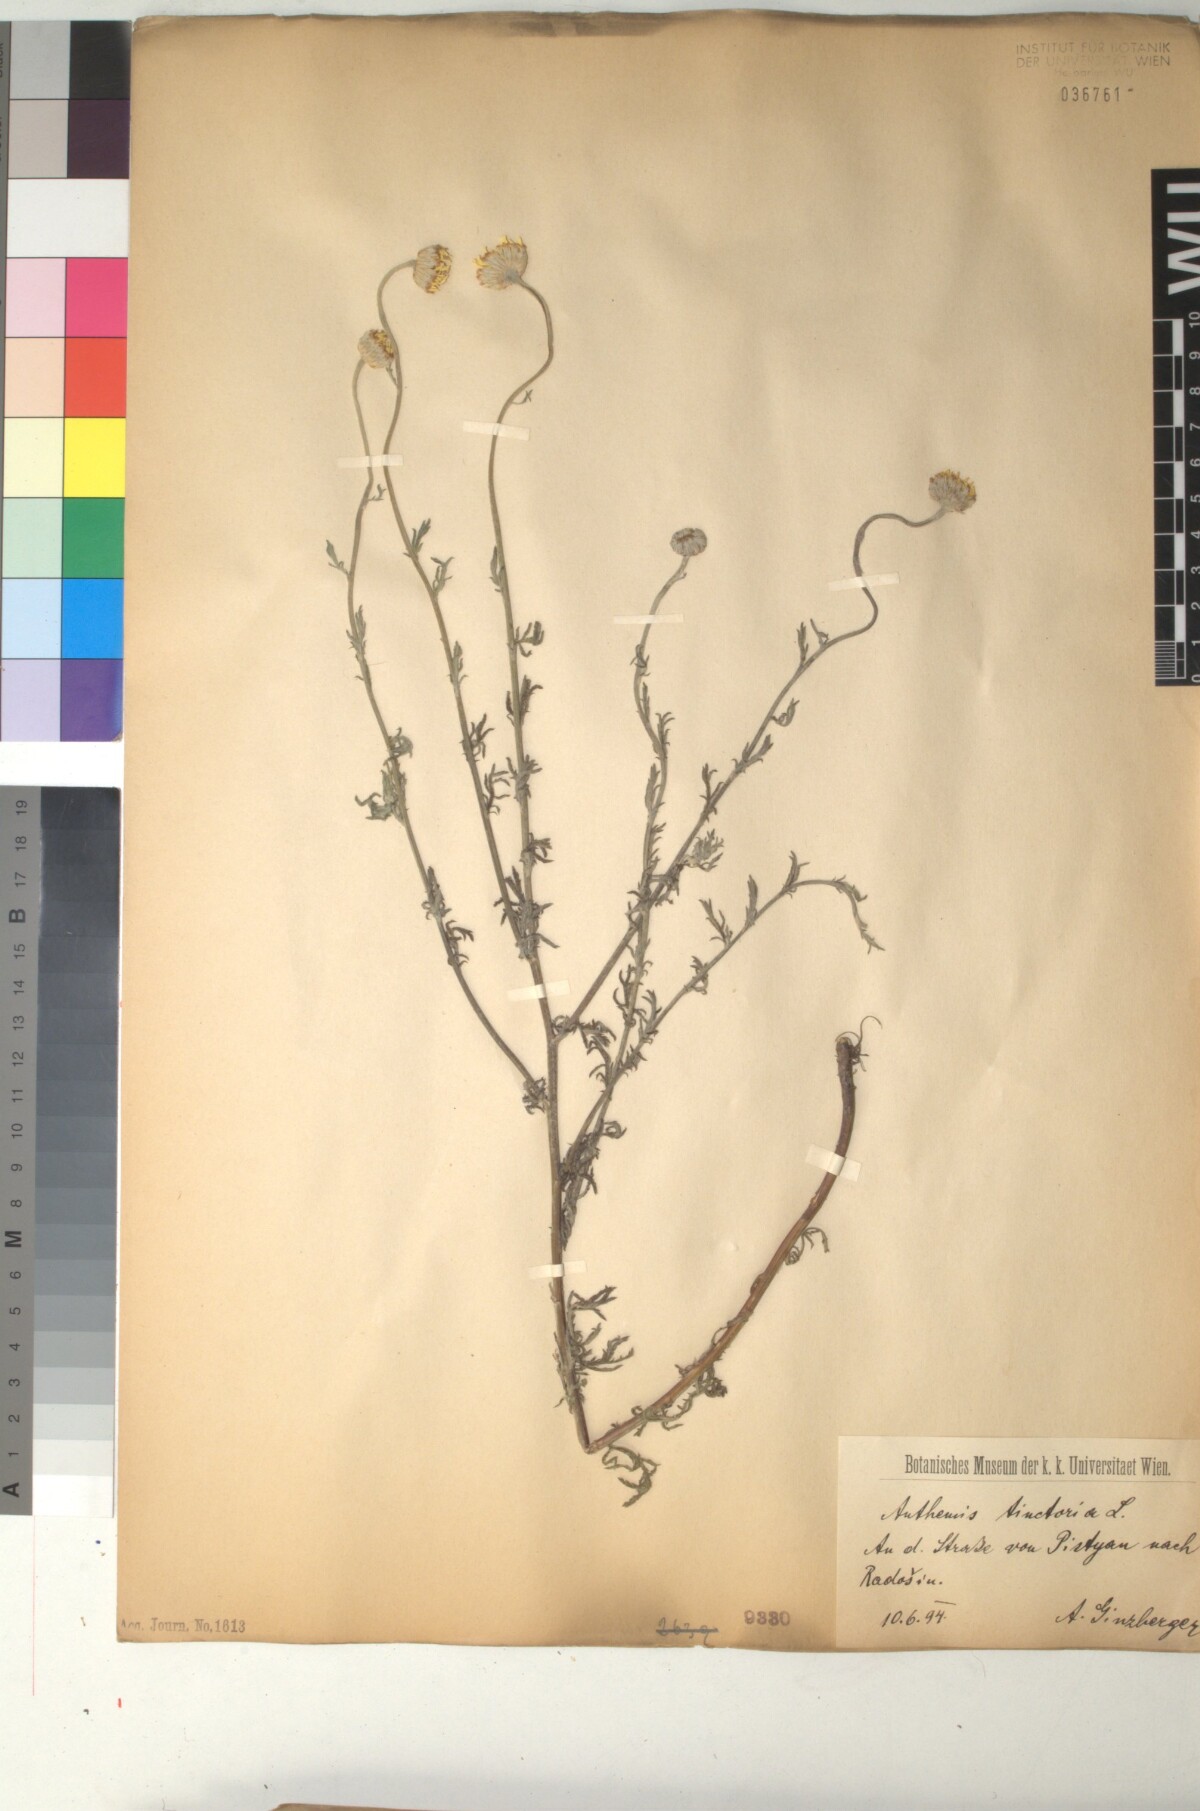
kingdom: Plantae
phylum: Tracheophyta
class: Magnoliopsida
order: Asterales
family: Asteraceae
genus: Cota
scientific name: Cota tinctoria
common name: Golden chamomile
